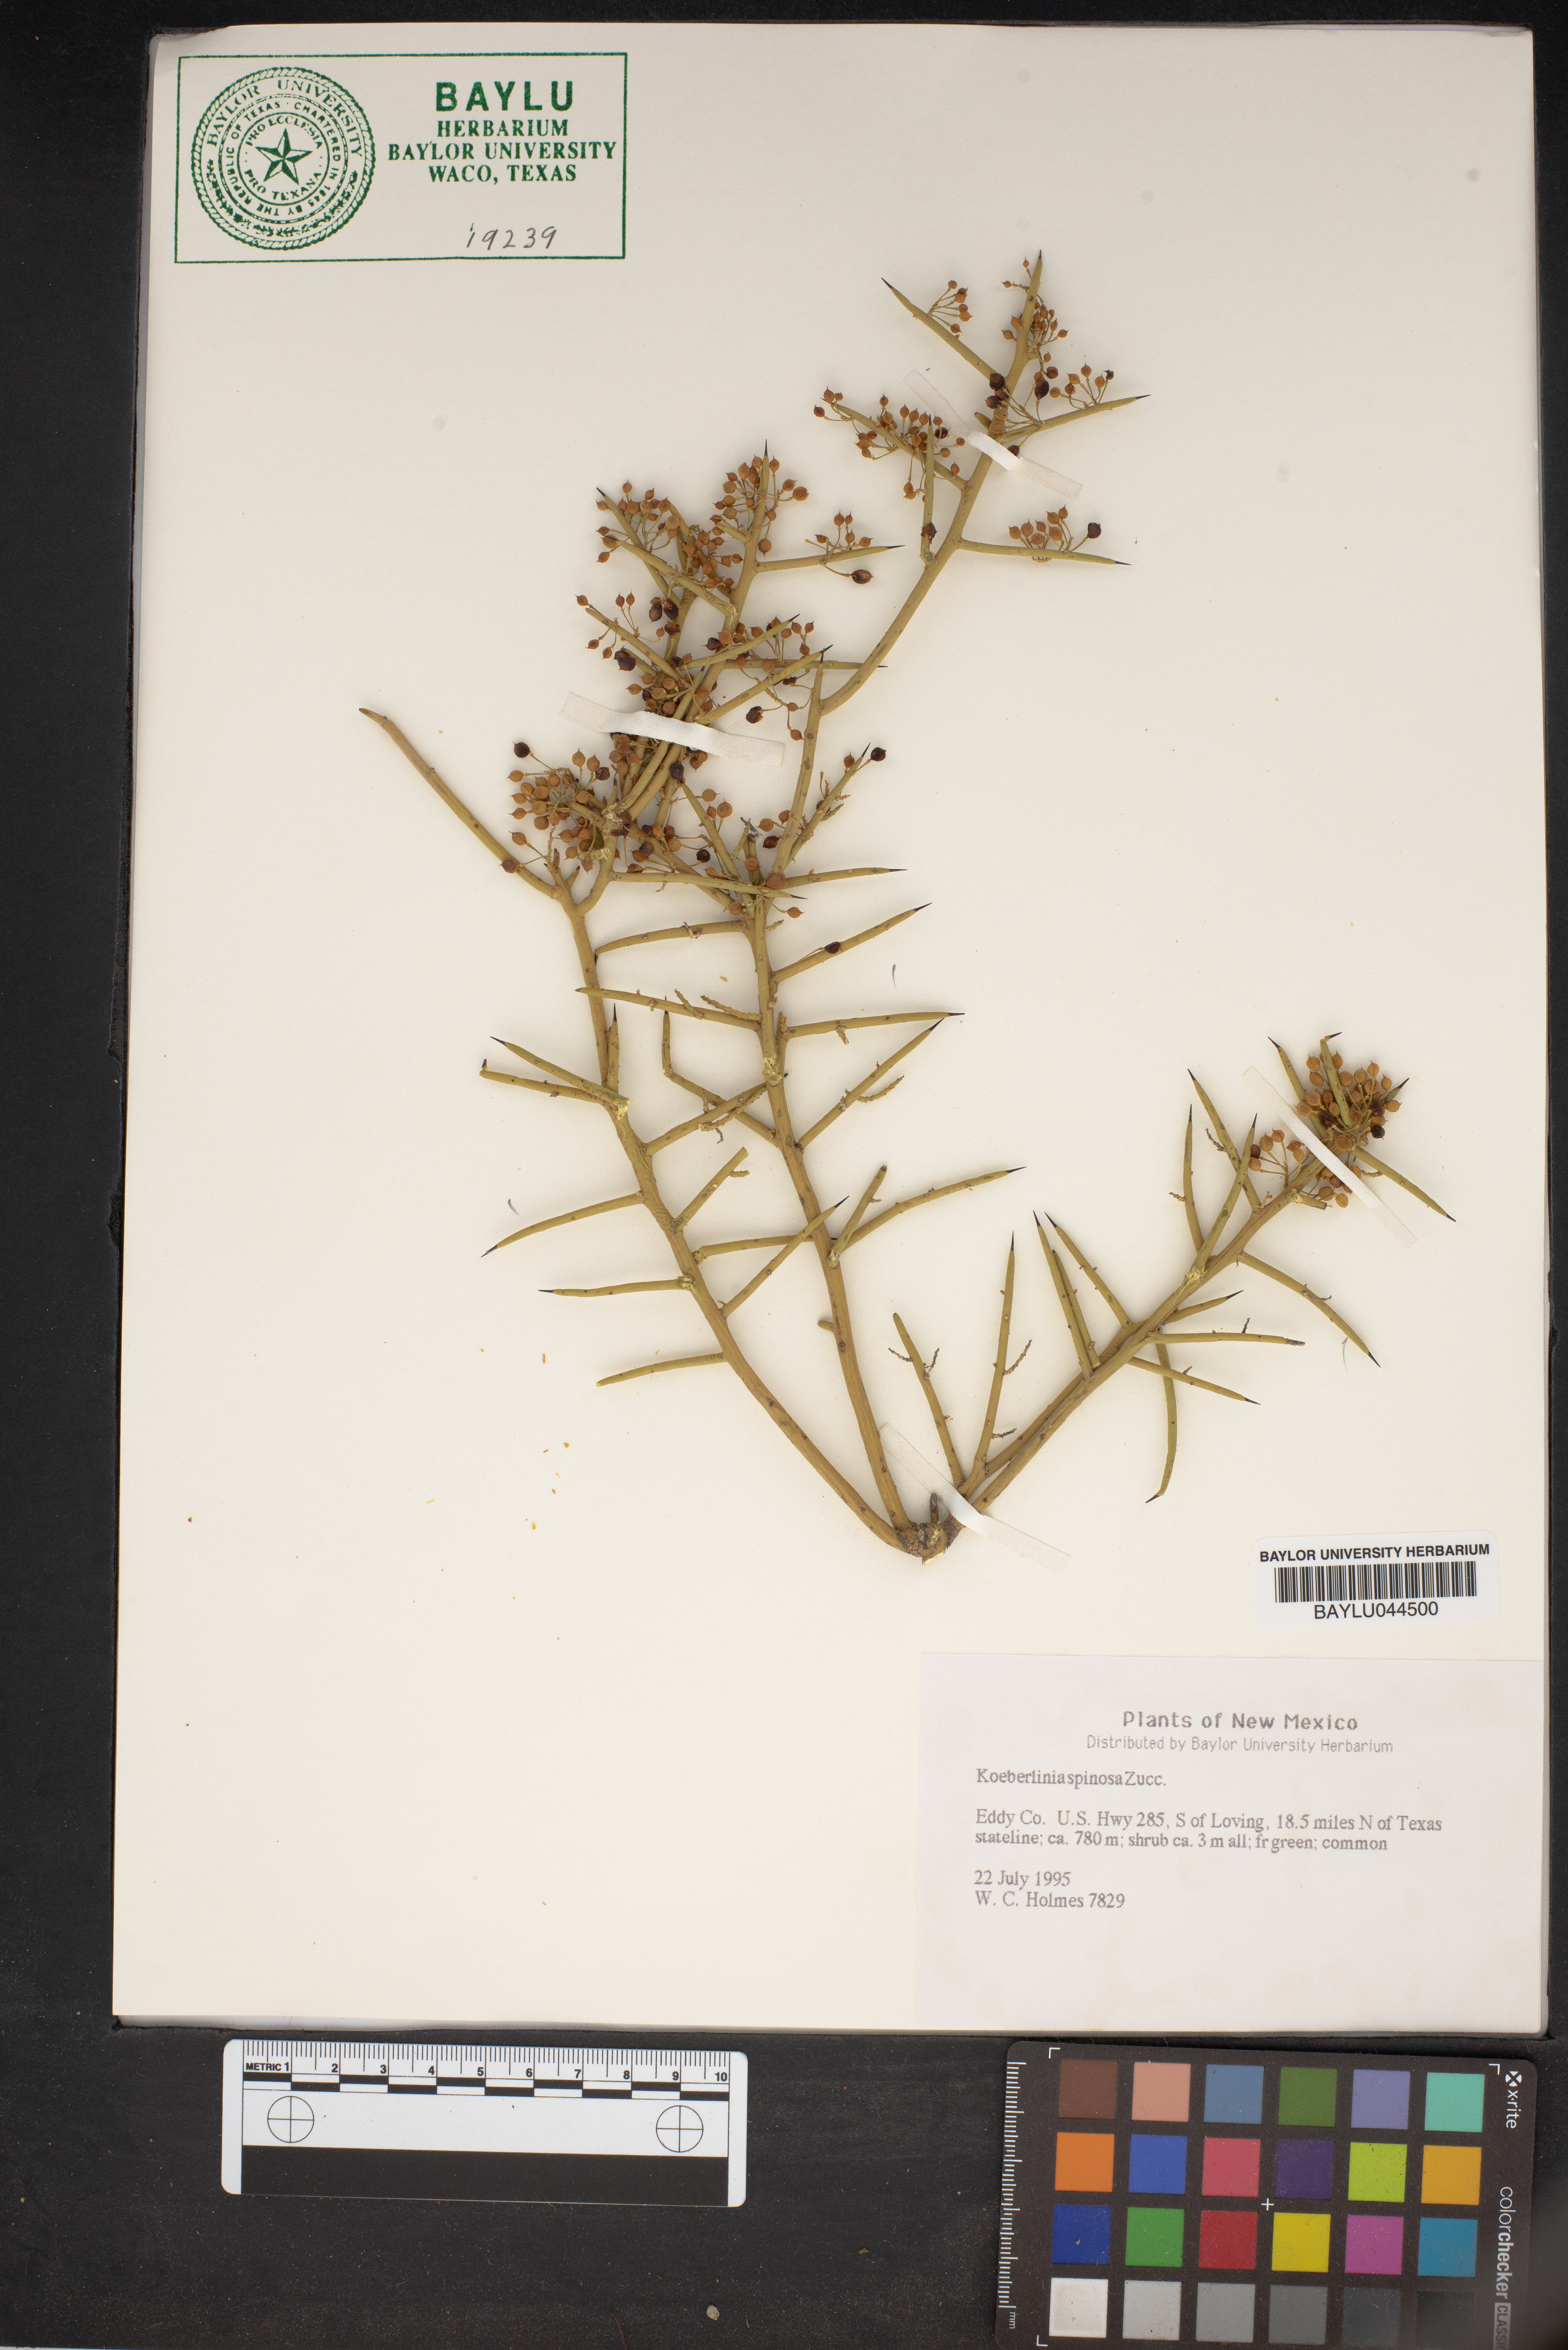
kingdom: Plantae
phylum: Tracheophyta
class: Magnoliopsida
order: Brassicales
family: Koeberliniaceae
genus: Koeberlinia
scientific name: Koeberlinia spinosa
